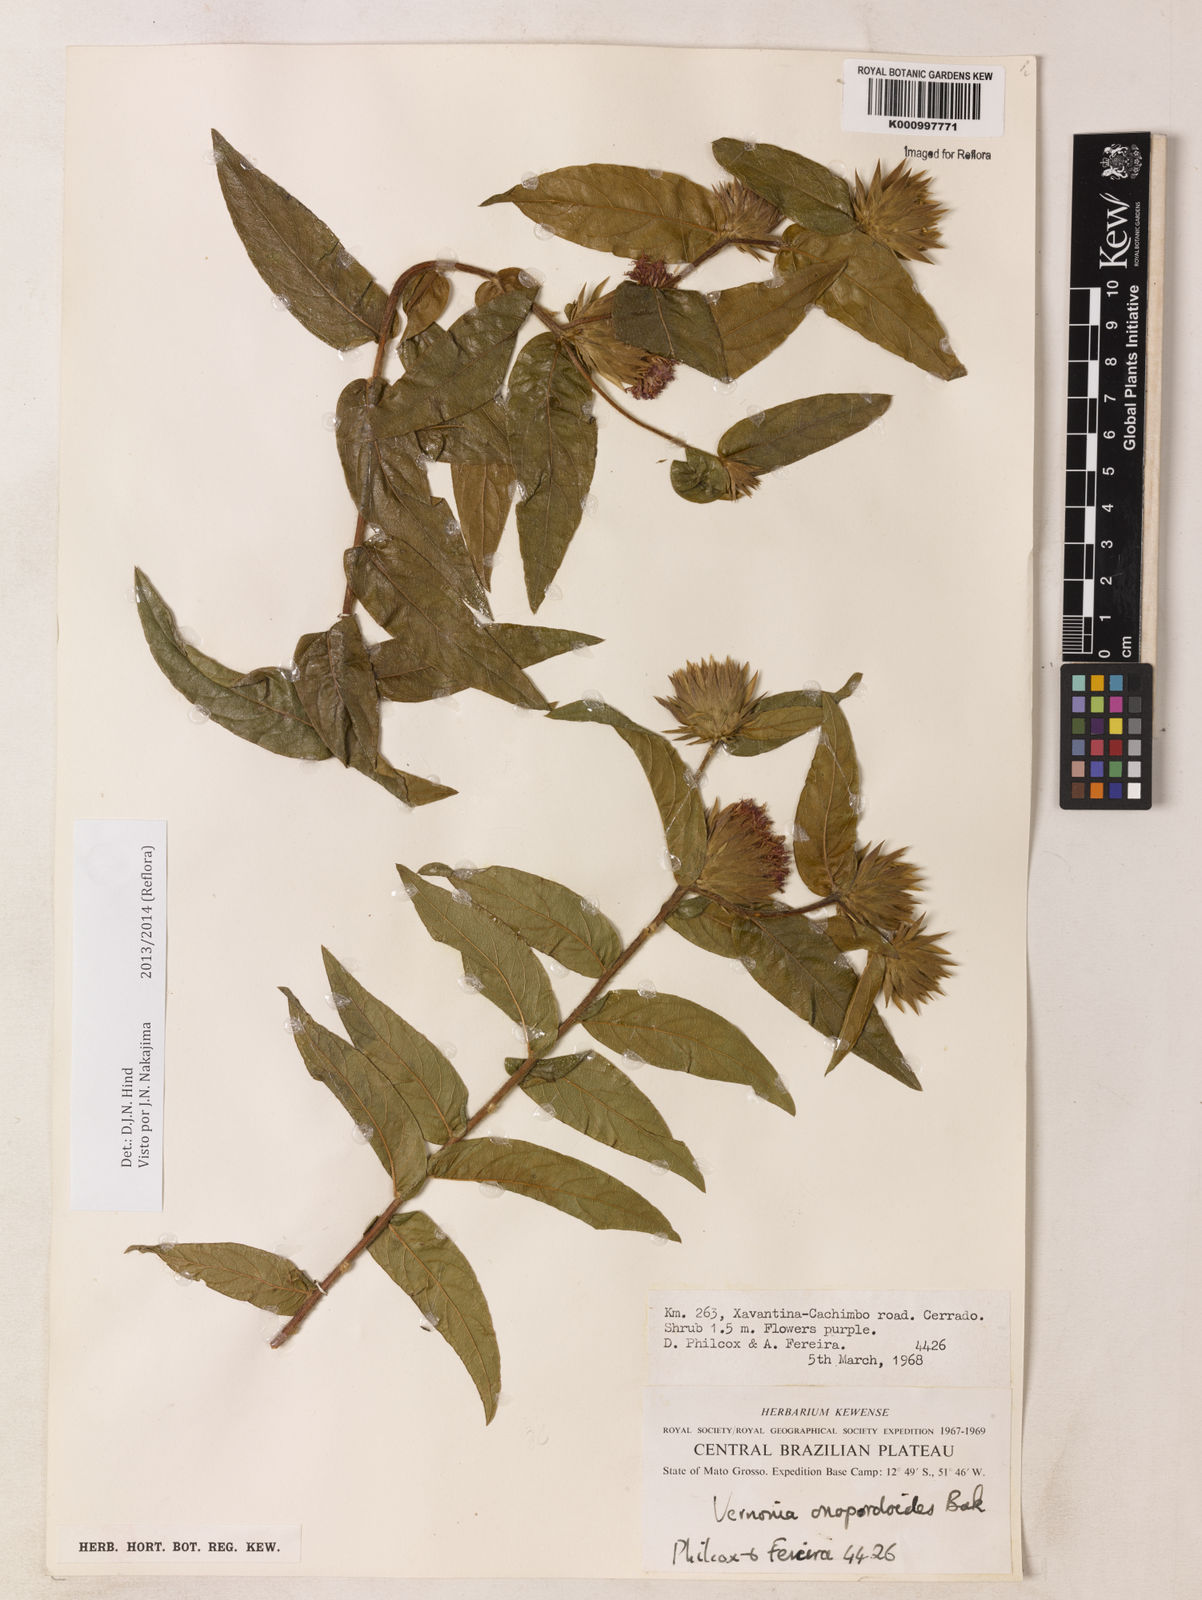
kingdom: Plantae
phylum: Tracheophyta
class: Magnoliopsida
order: Asterales
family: Asteraceae
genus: Lessingianthus
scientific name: Lessingianthus onopordioides
